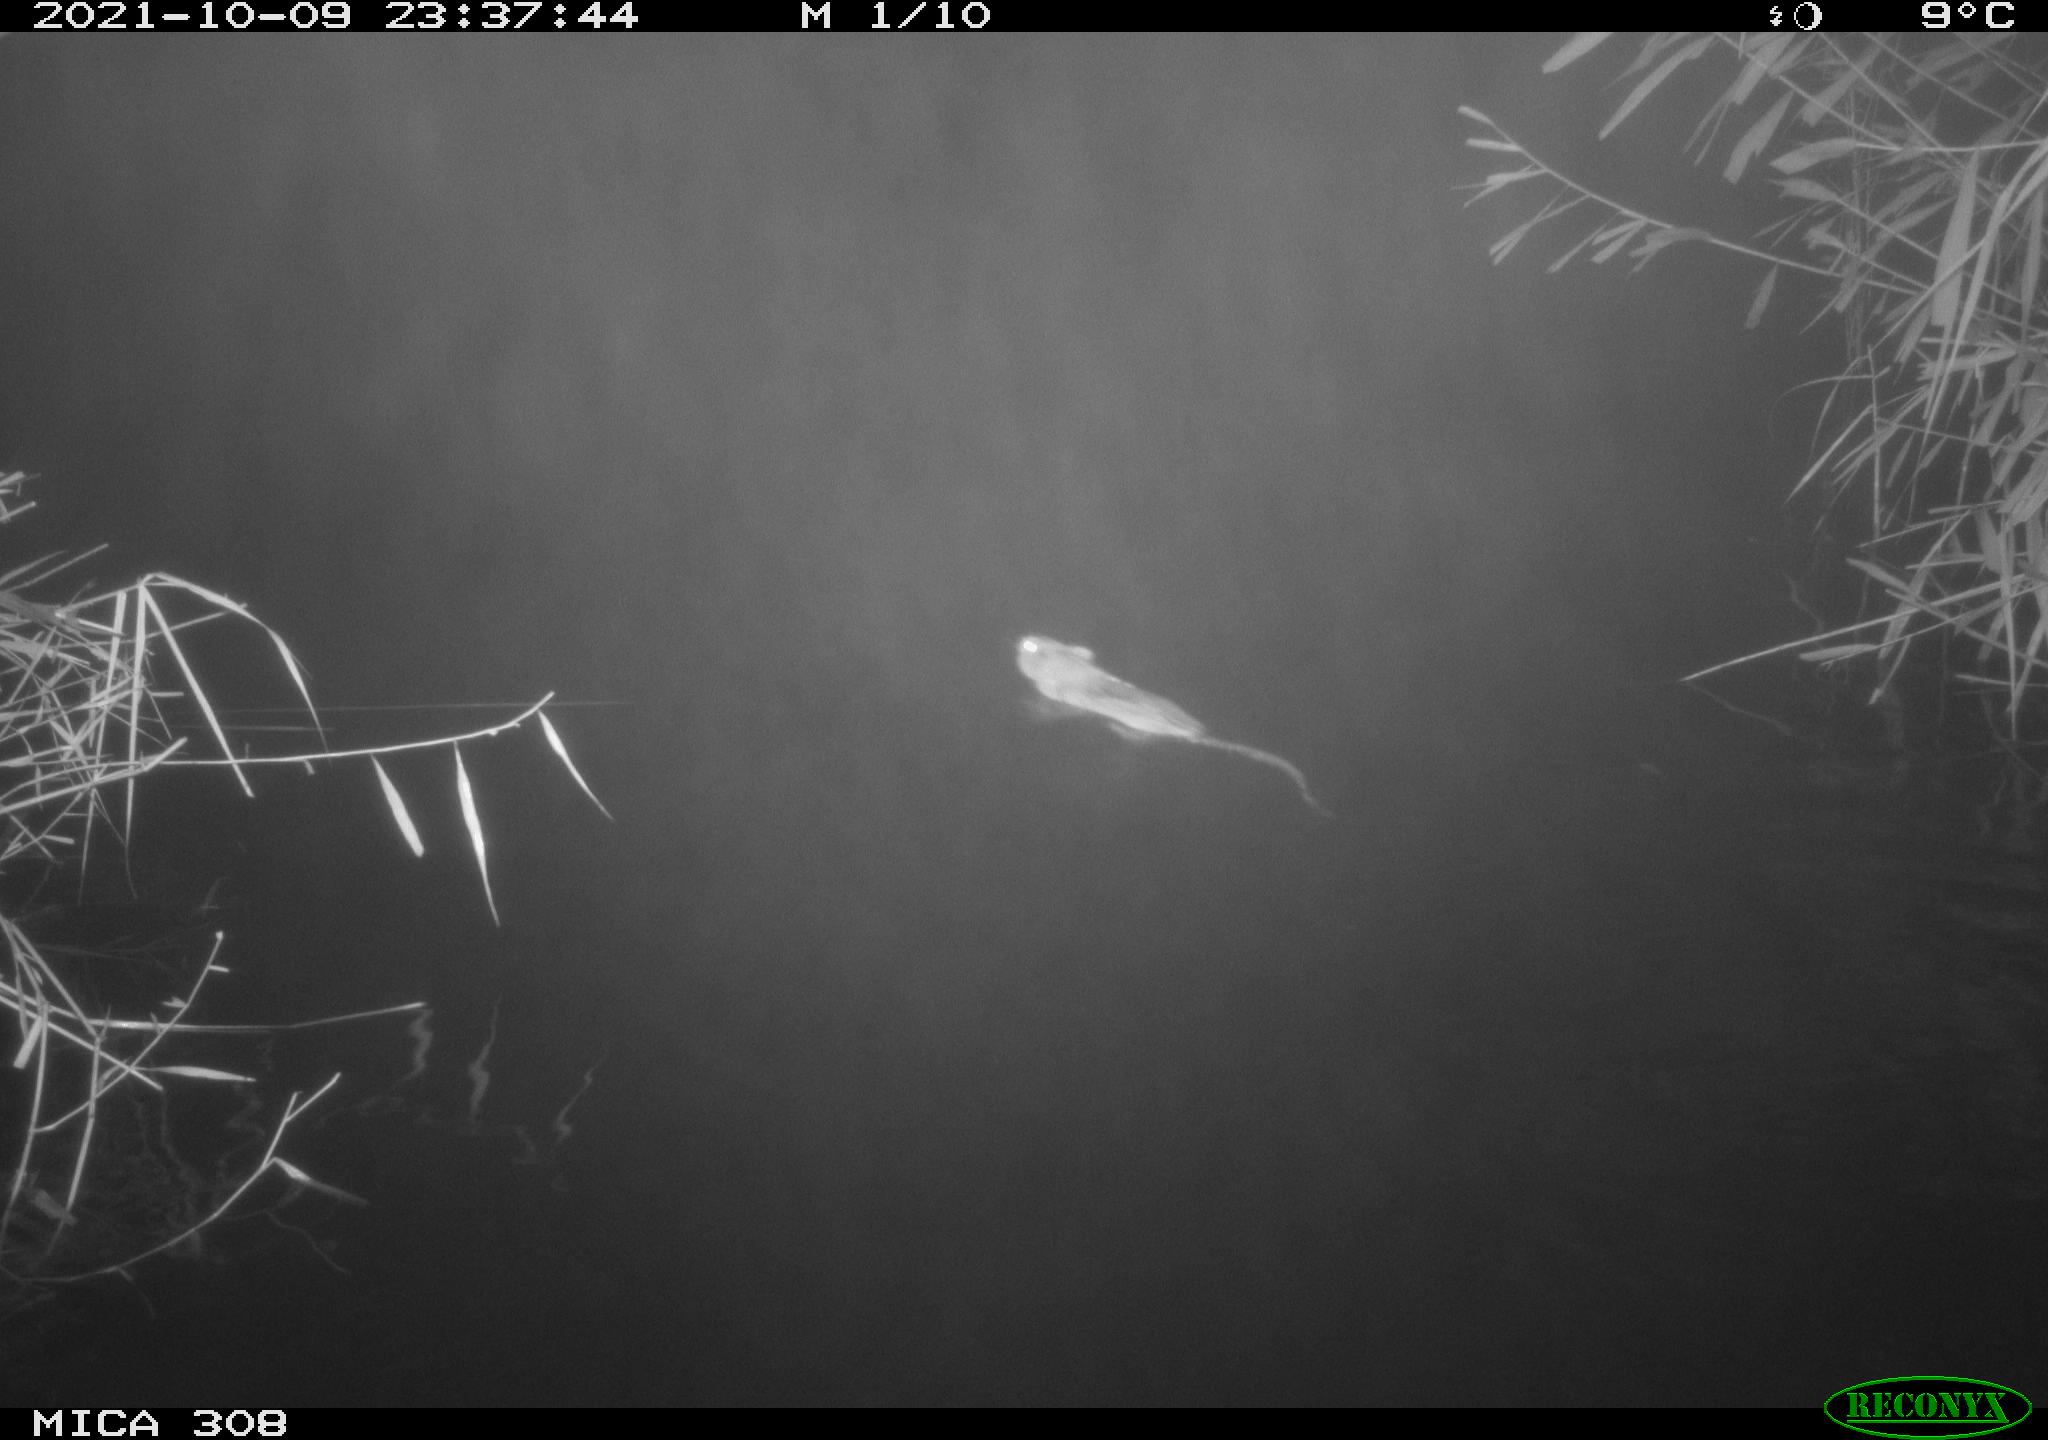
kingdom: Animalia
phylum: Chordata
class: Mammalia
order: Rodentia
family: Cricetidae
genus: Ondatra
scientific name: Ondatra zibethicus
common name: Muskrat
